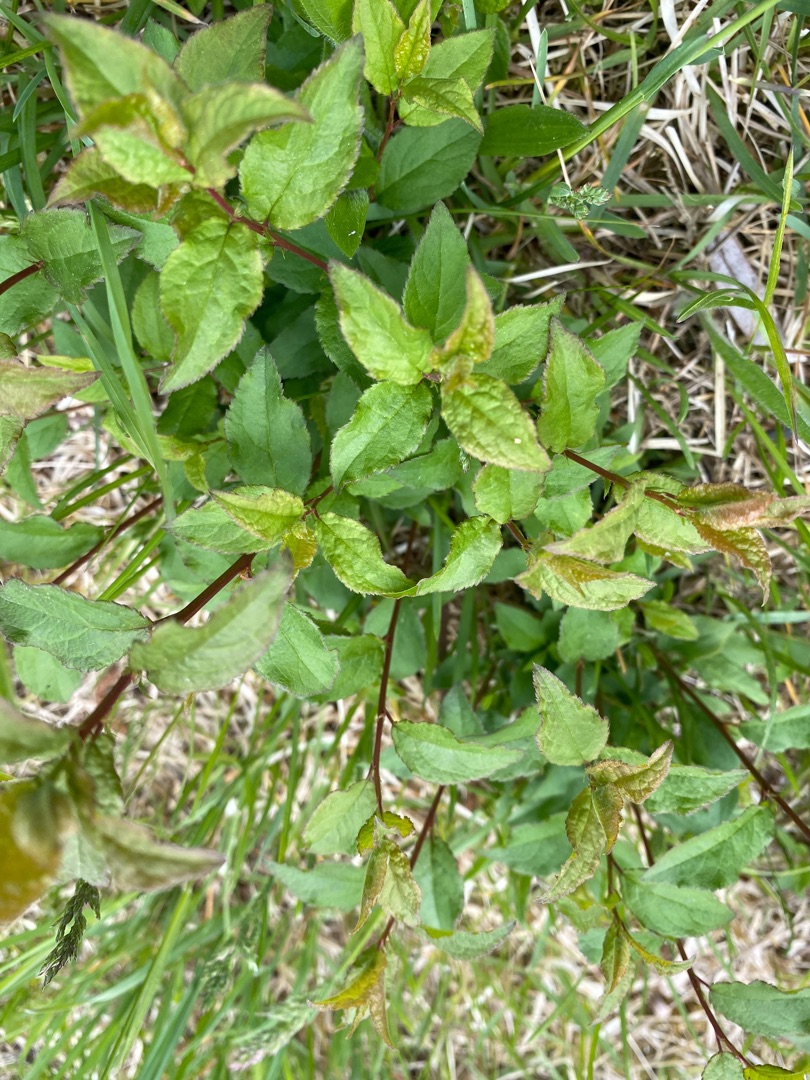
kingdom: Plantae
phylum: Tracheophyta
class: Magnoliopsida
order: Rosales
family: Rosaceae
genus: Prunus
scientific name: Prunus
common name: Blommeslægten
